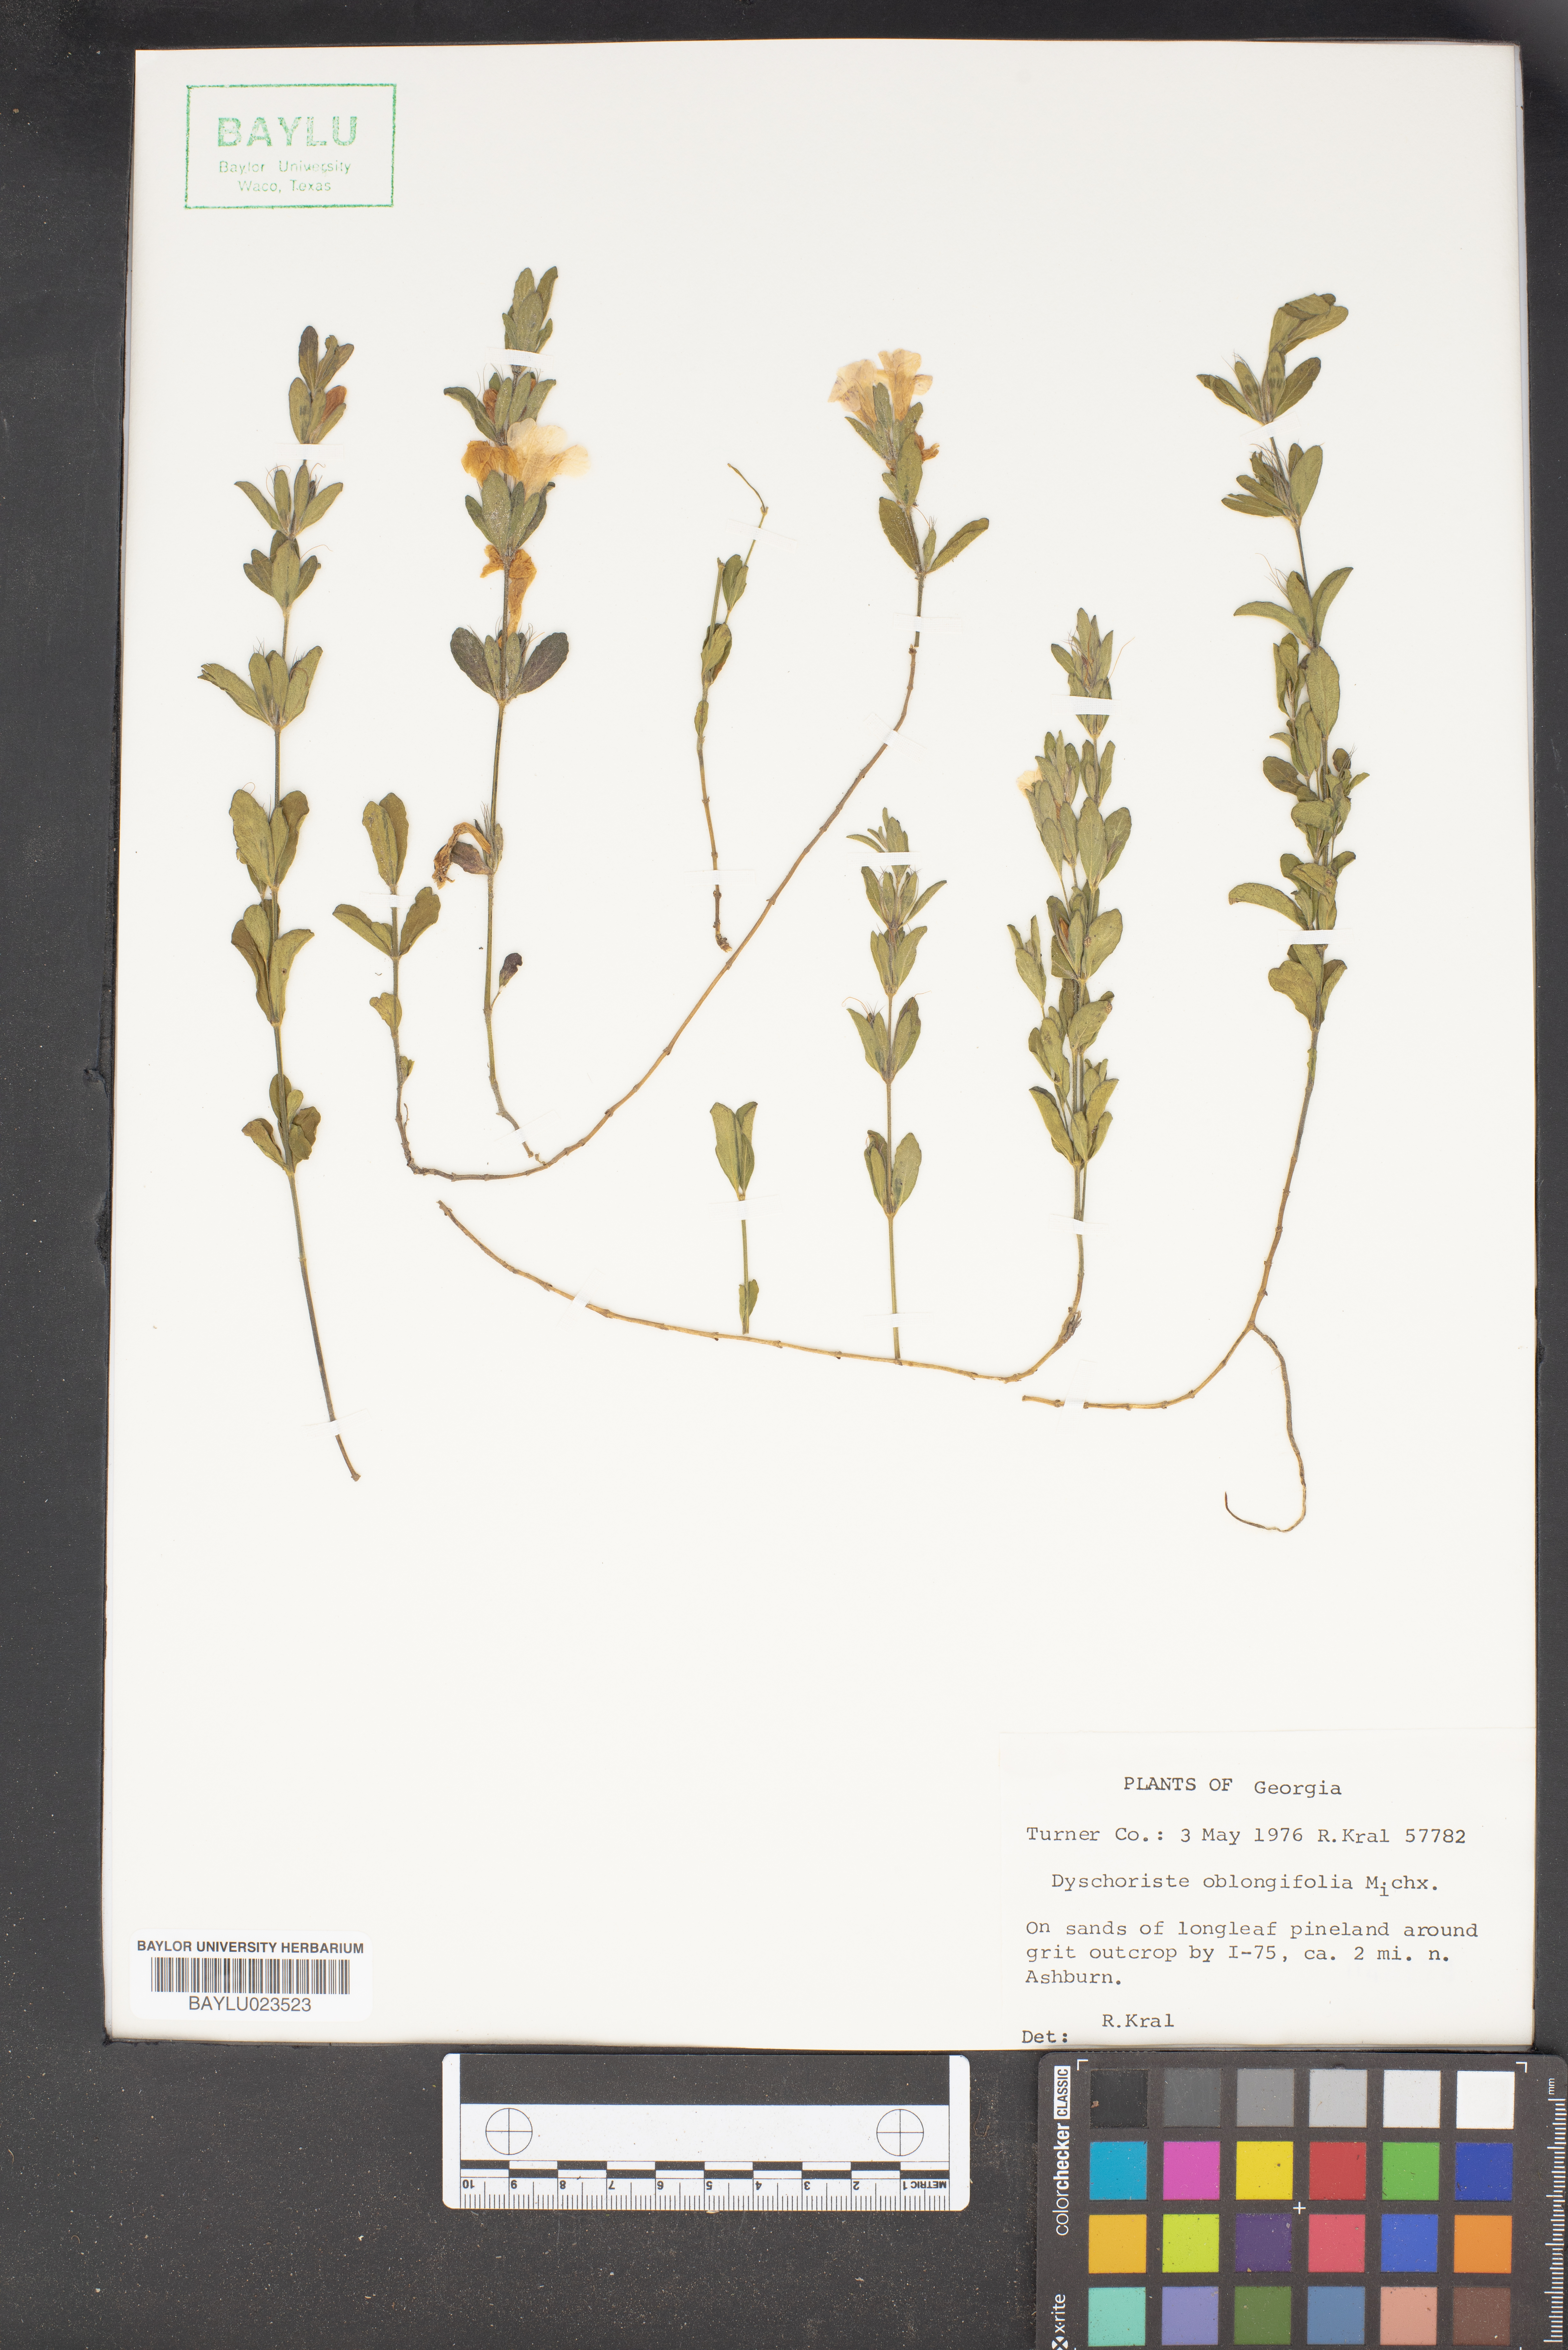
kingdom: Plantae
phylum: Tracheophyta
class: Magnoliopsida
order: Lamiales
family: Acanthaceae
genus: Dyschoriste
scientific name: Dyschoriste oblongifolia
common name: Blue twinflower
